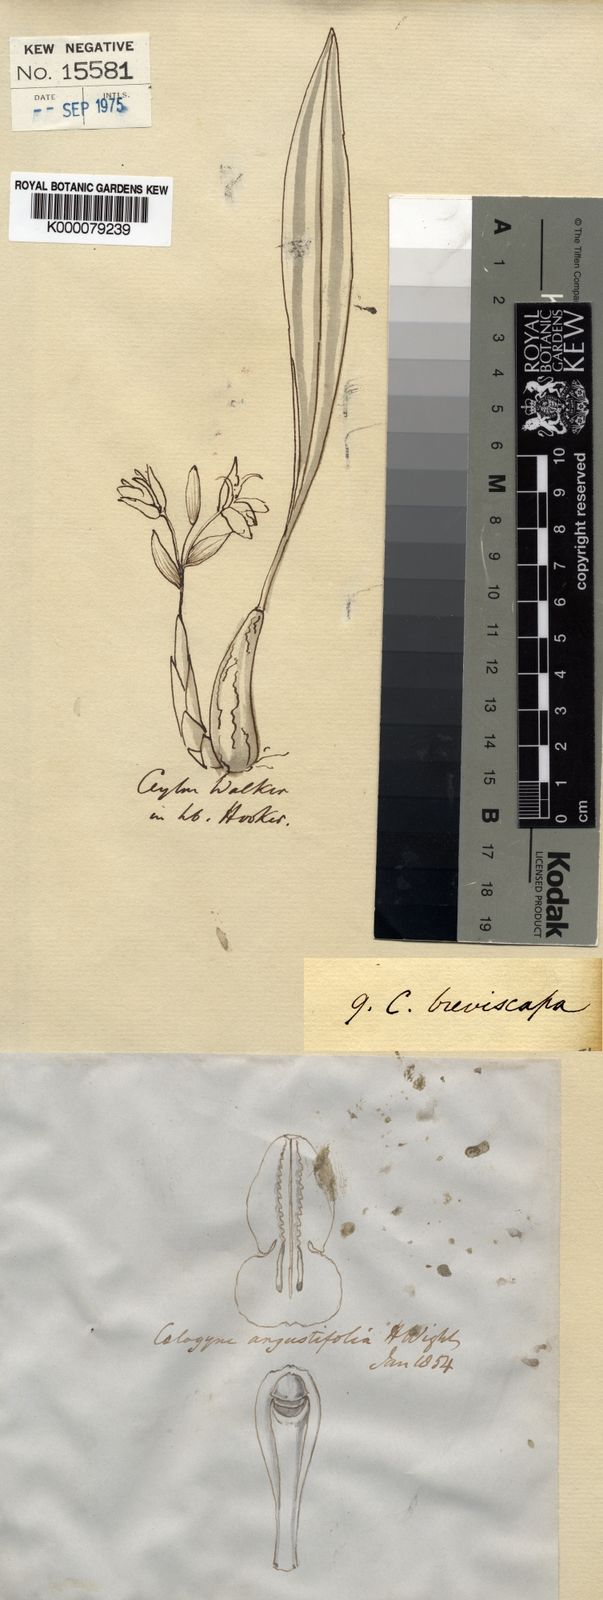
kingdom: Plantae
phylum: Tracheophyta
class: Liliopsida
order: Asparagales
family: Orchidaceae
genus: Coelogyne
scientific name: Coelogyne breviscapa
